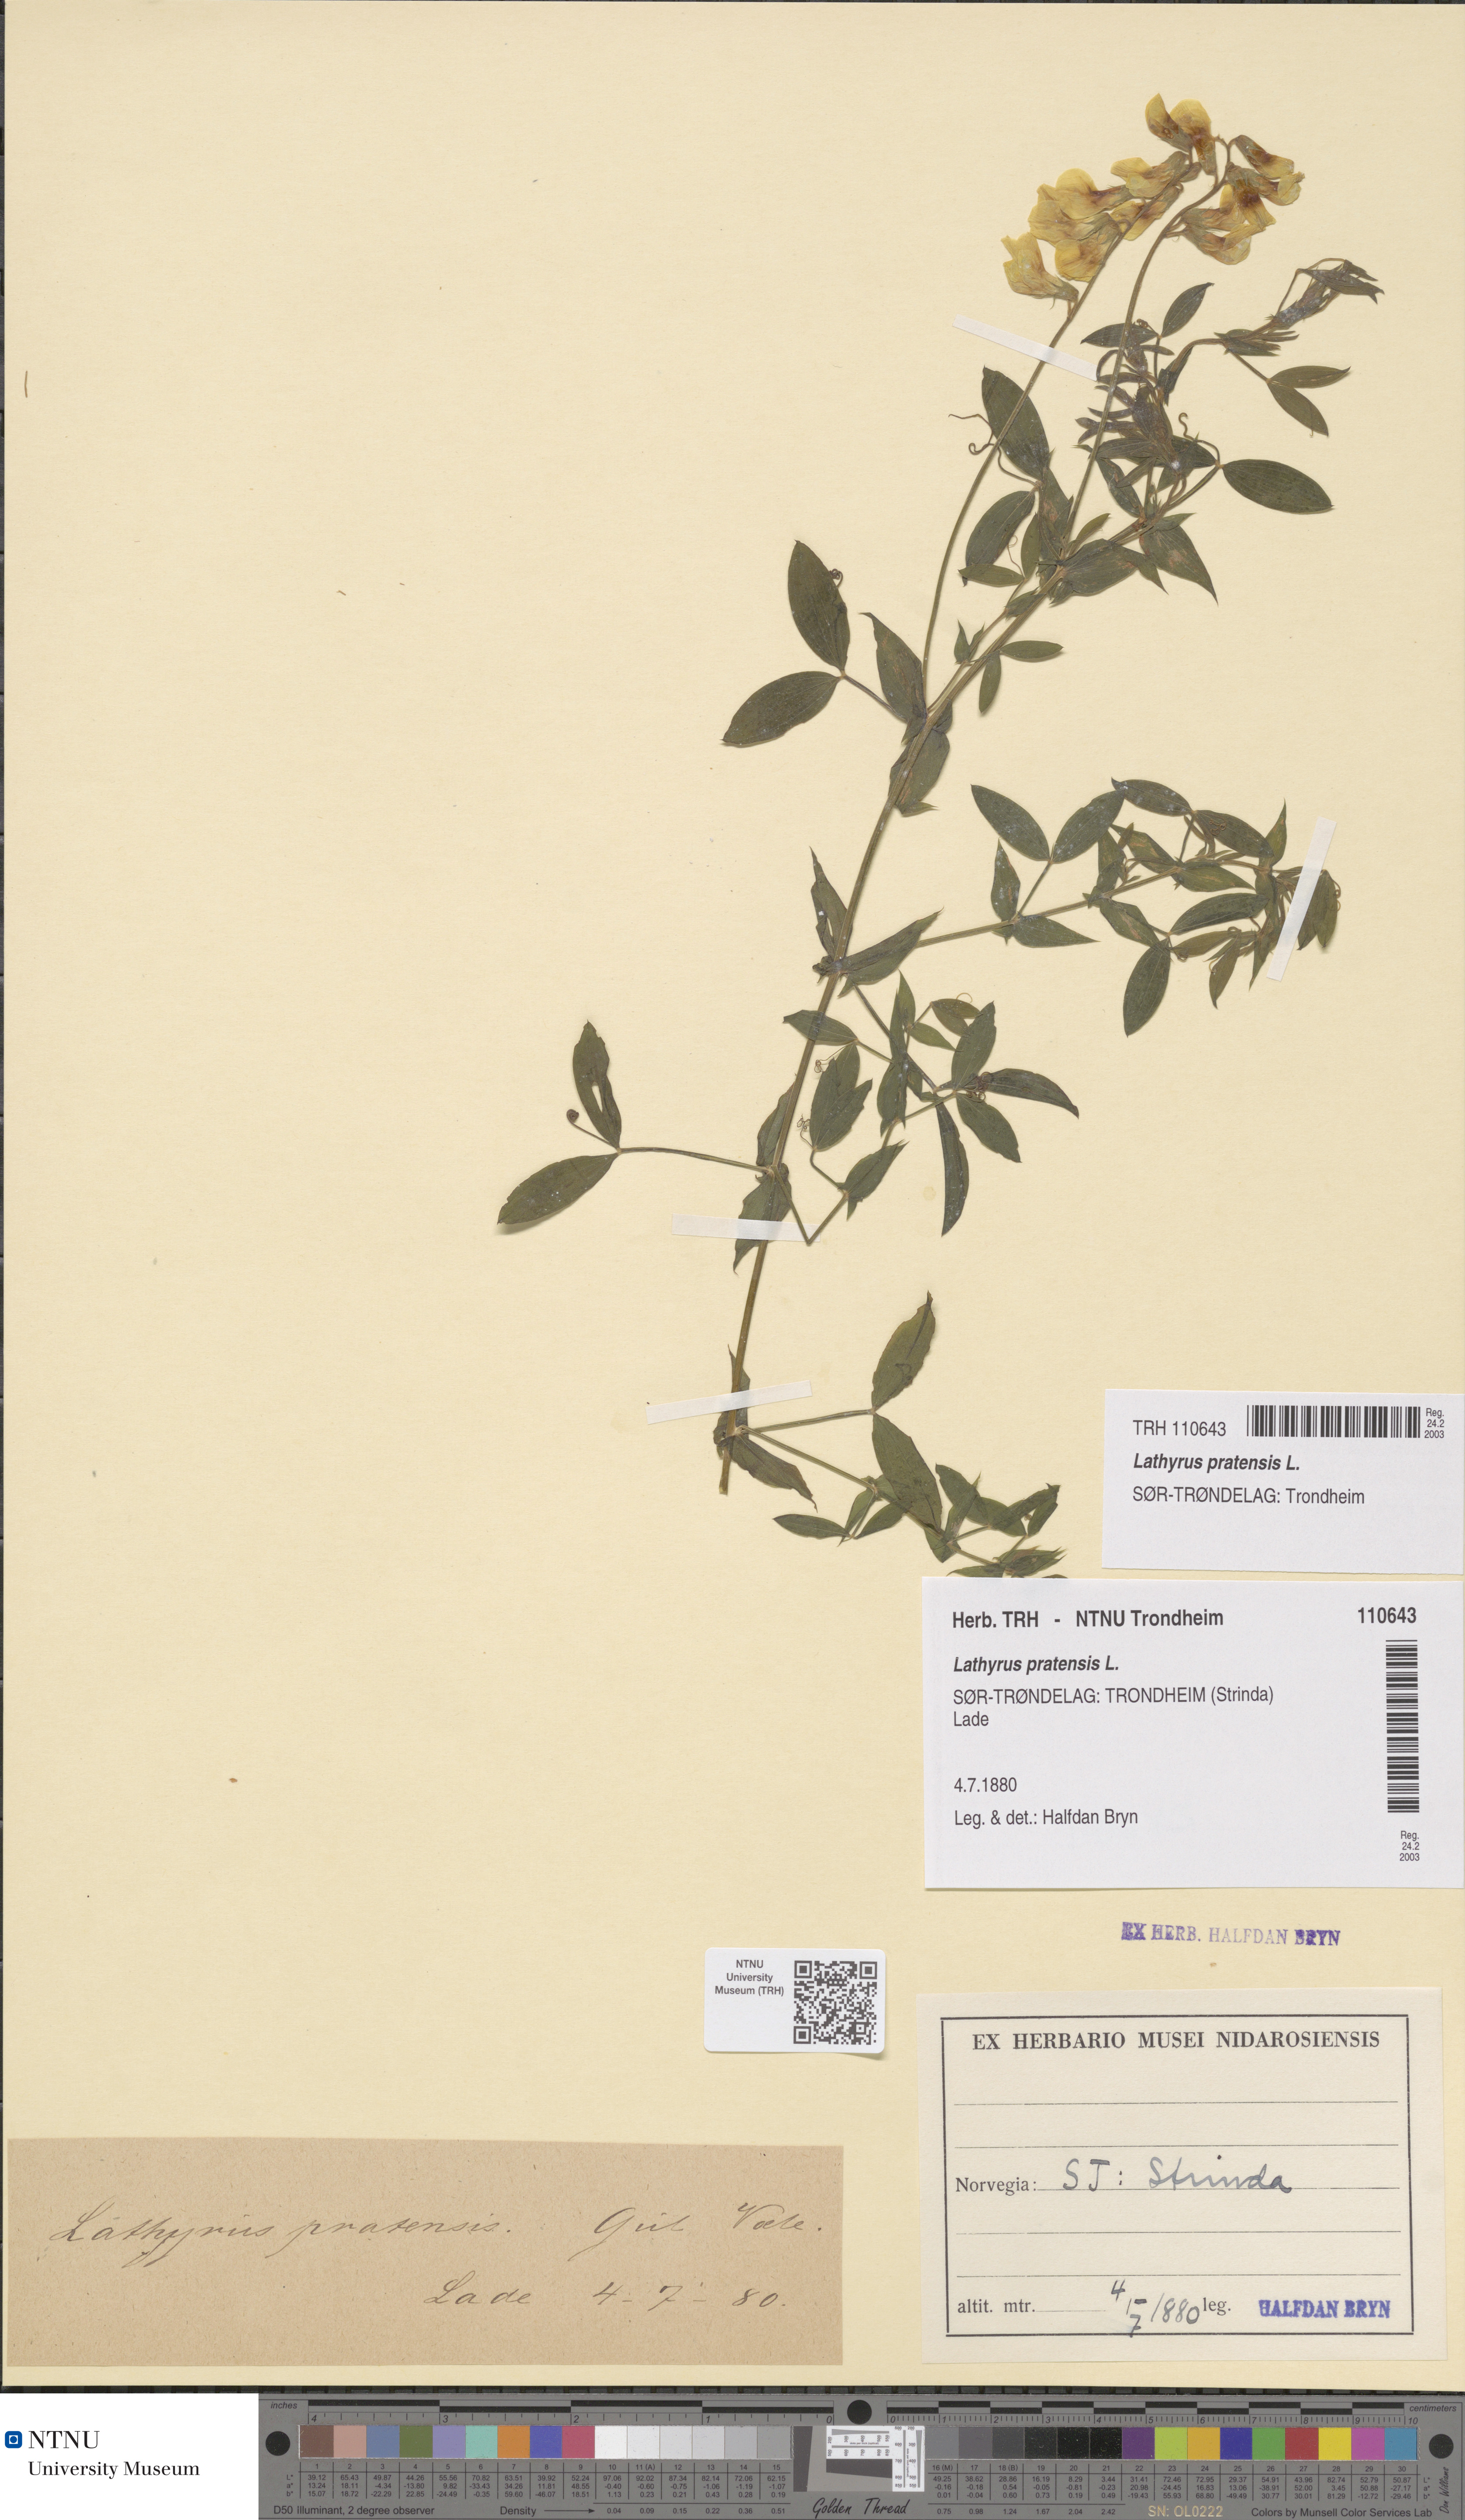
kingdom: Plantae
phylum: Tracheophyta
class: Magnoliopsida
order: Fabales
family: Fabaceae
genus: Lathyrus
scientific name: Lathyrus pratensis
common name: Meadow vetchling
